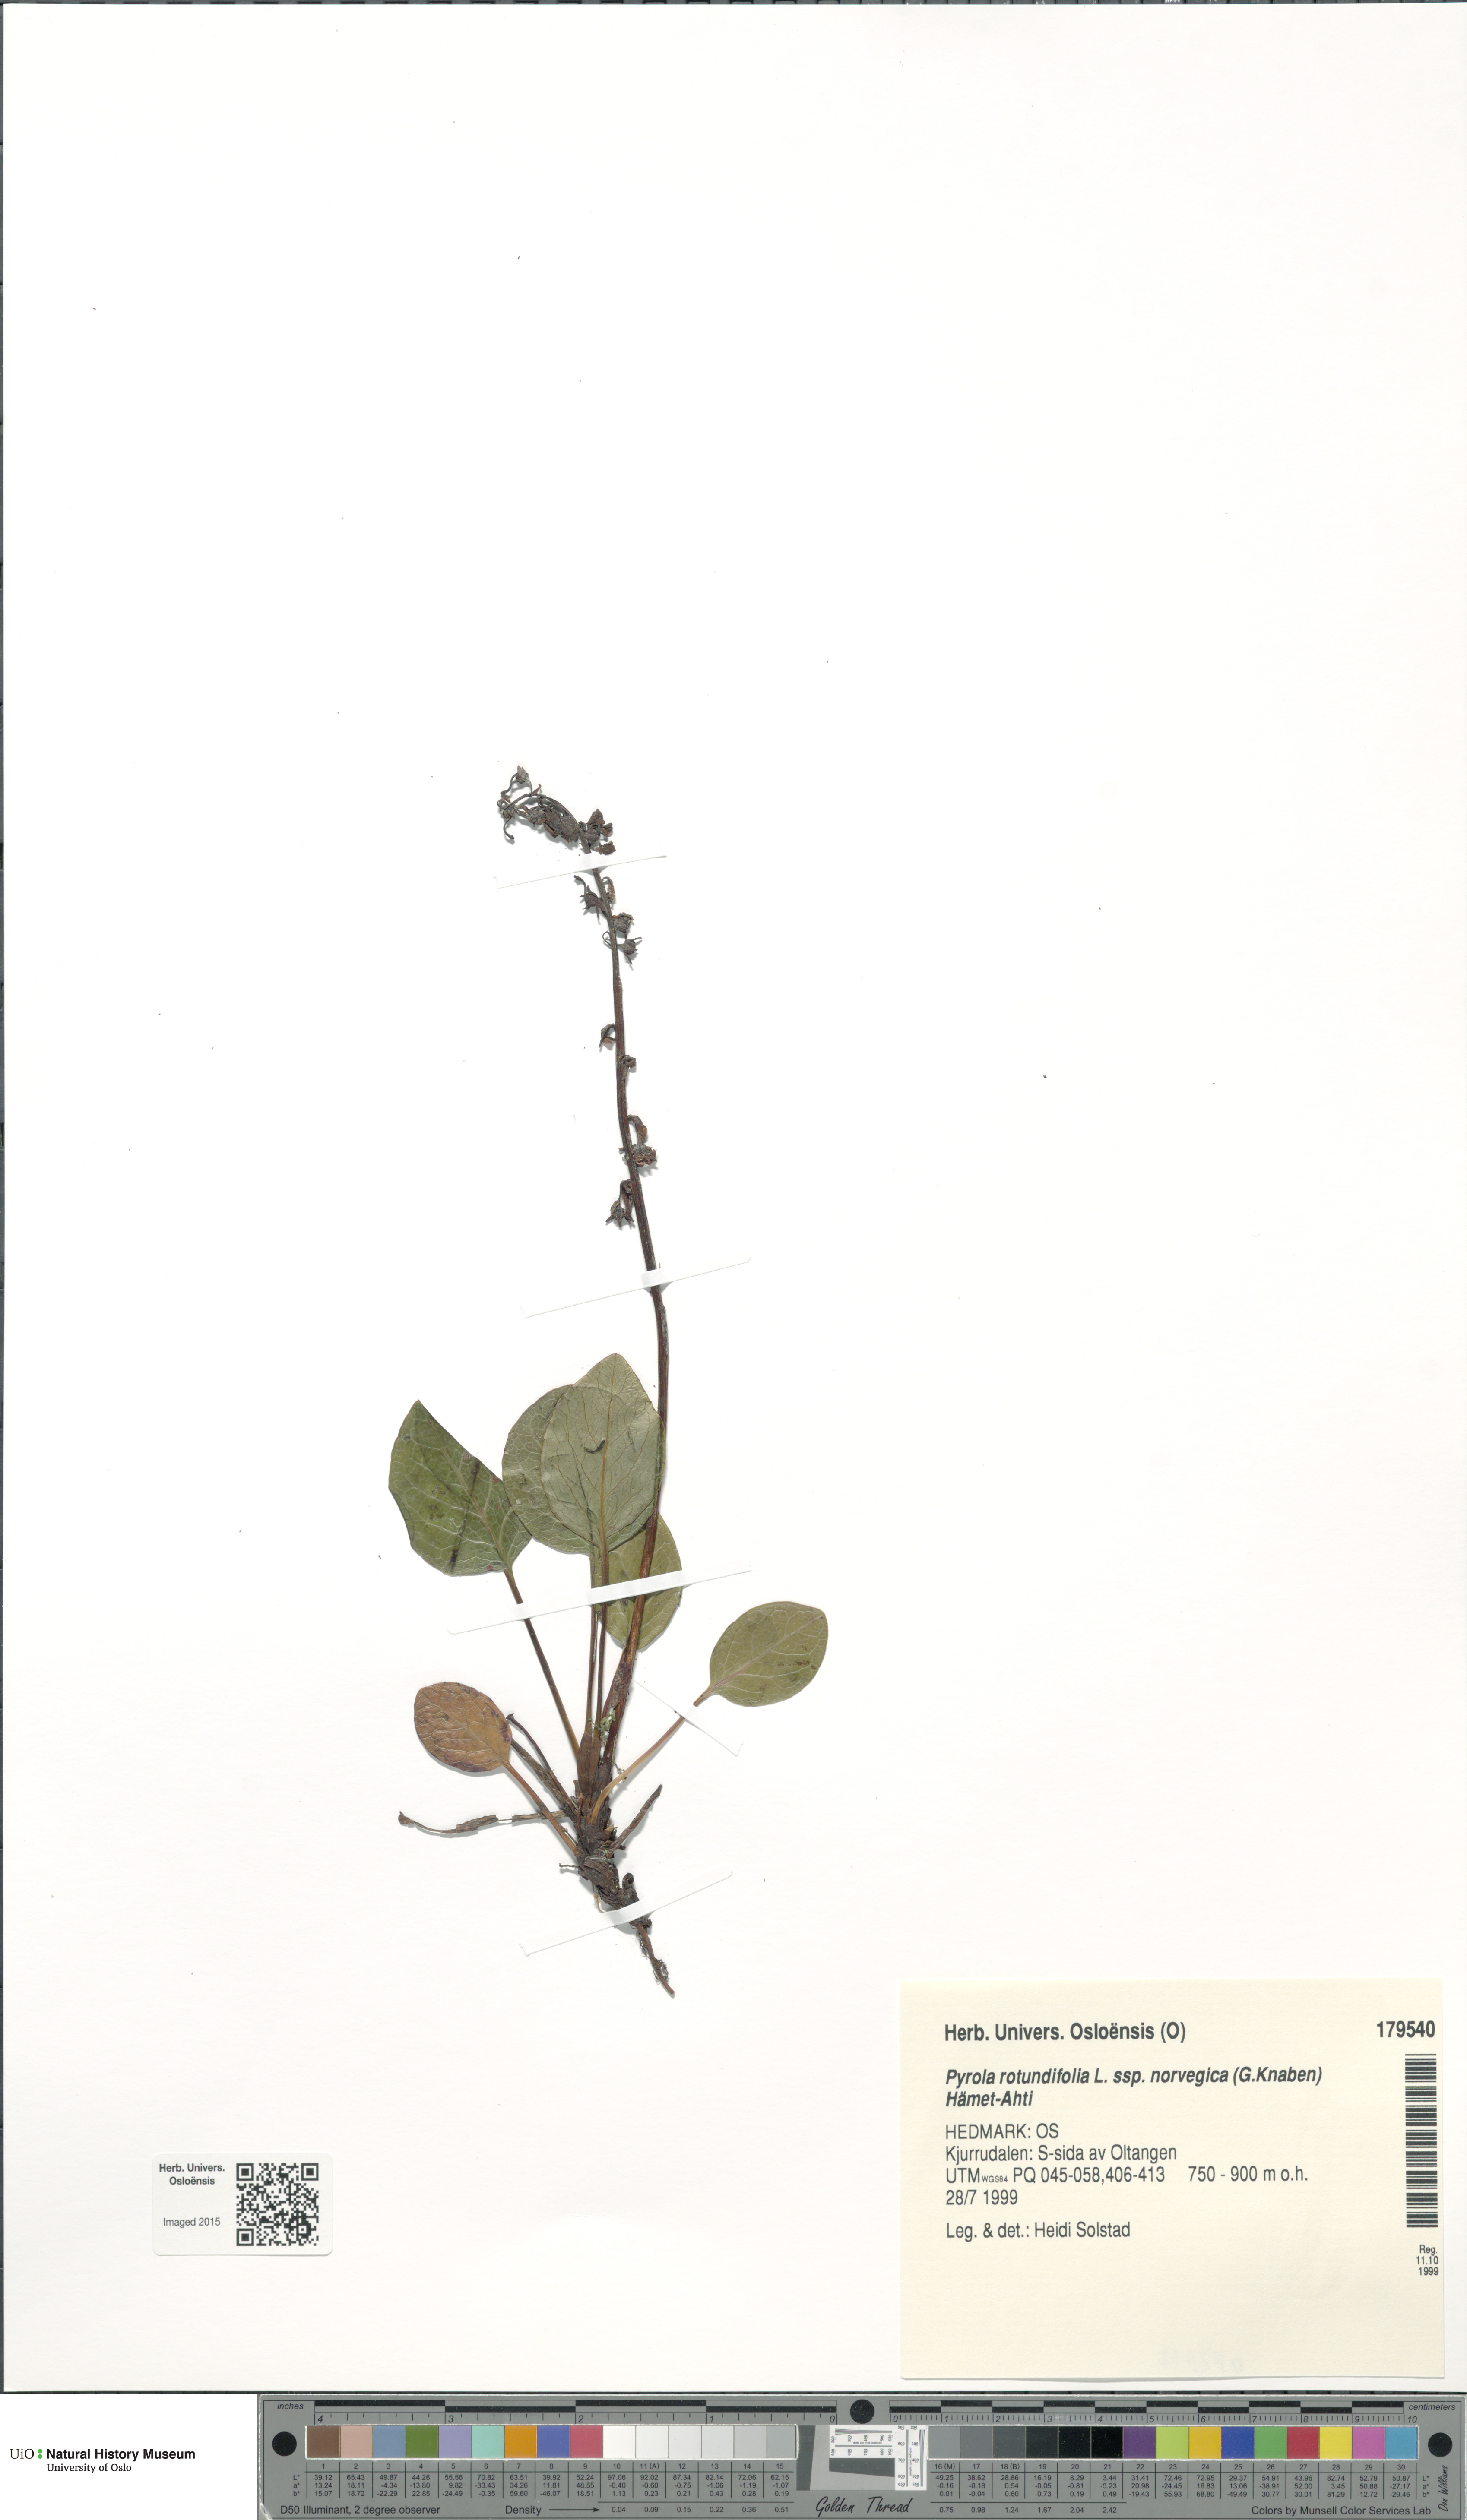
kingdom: Plantae
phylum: Tracheophyta
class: Magnoliopsida
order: Ericales
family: Ericaceae
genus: Pyrola
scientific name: Pyrola rotundifolia
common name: Round-leaved wintergreen
